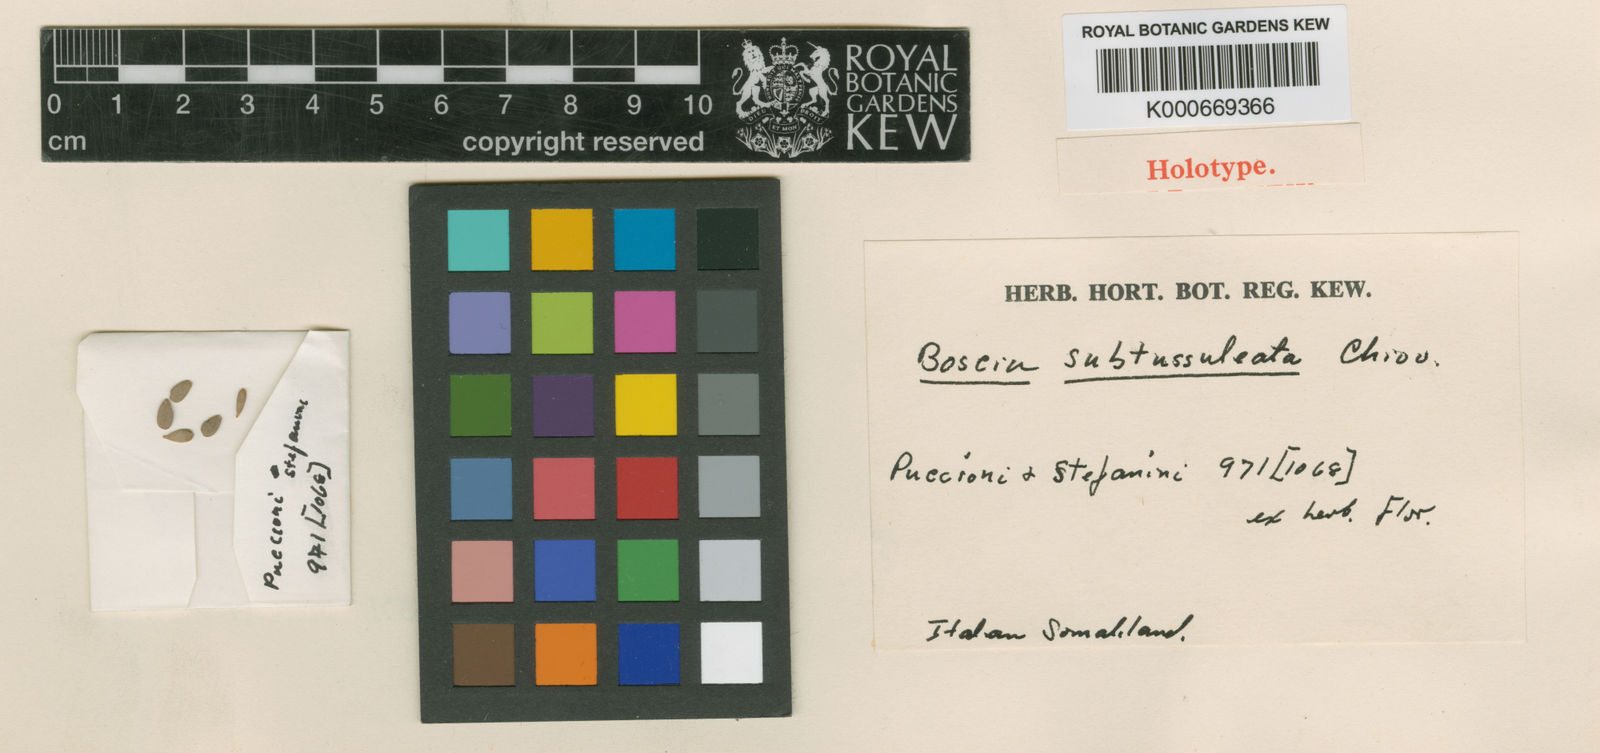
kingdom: Plantae
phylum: Tracheophyta
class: Magnoliopsida
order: Brassicales
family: Capparaceae
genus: Boscia
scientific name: Boscia minimifolia
